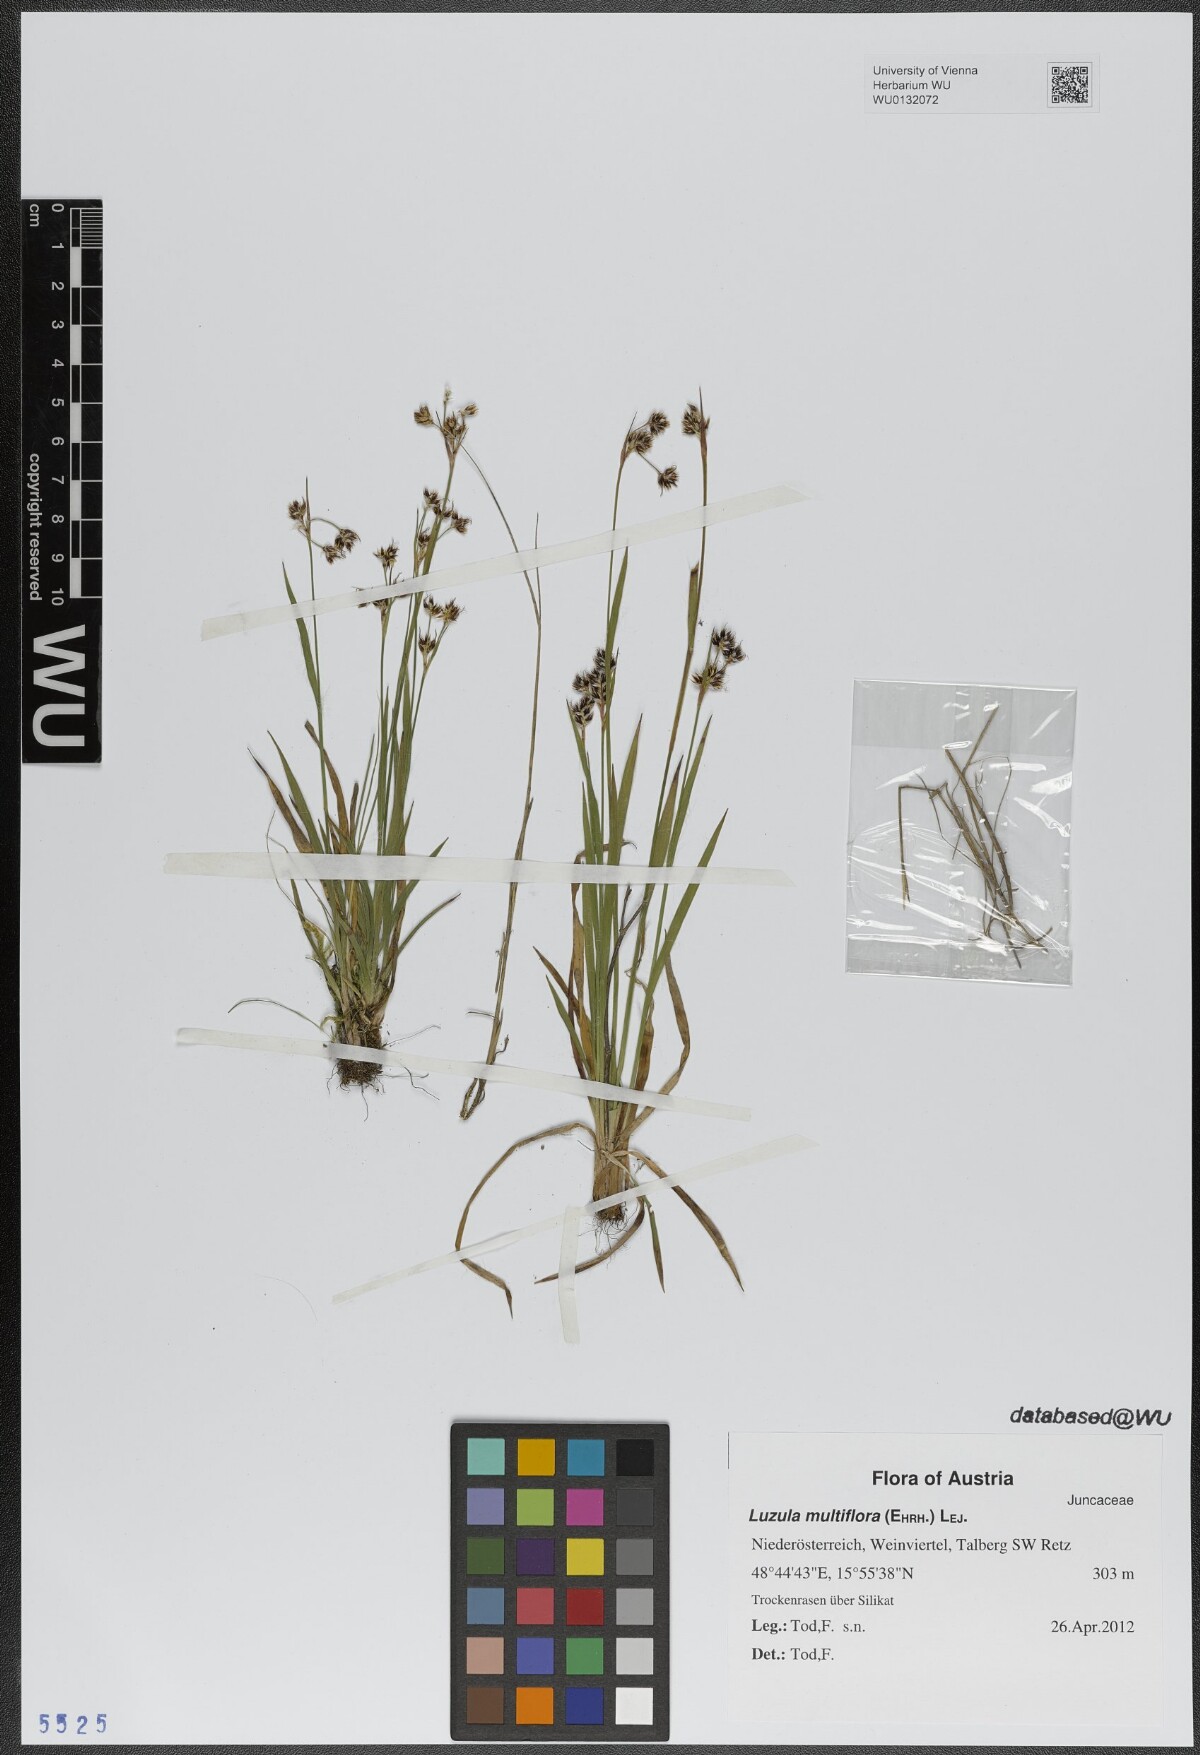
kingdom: Plantae
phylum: Tracheophyta
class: Liliopsida
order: Poales
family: Juncaceae
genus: Luzula
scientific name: Luzula multiflora
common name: Heath wood-rush
